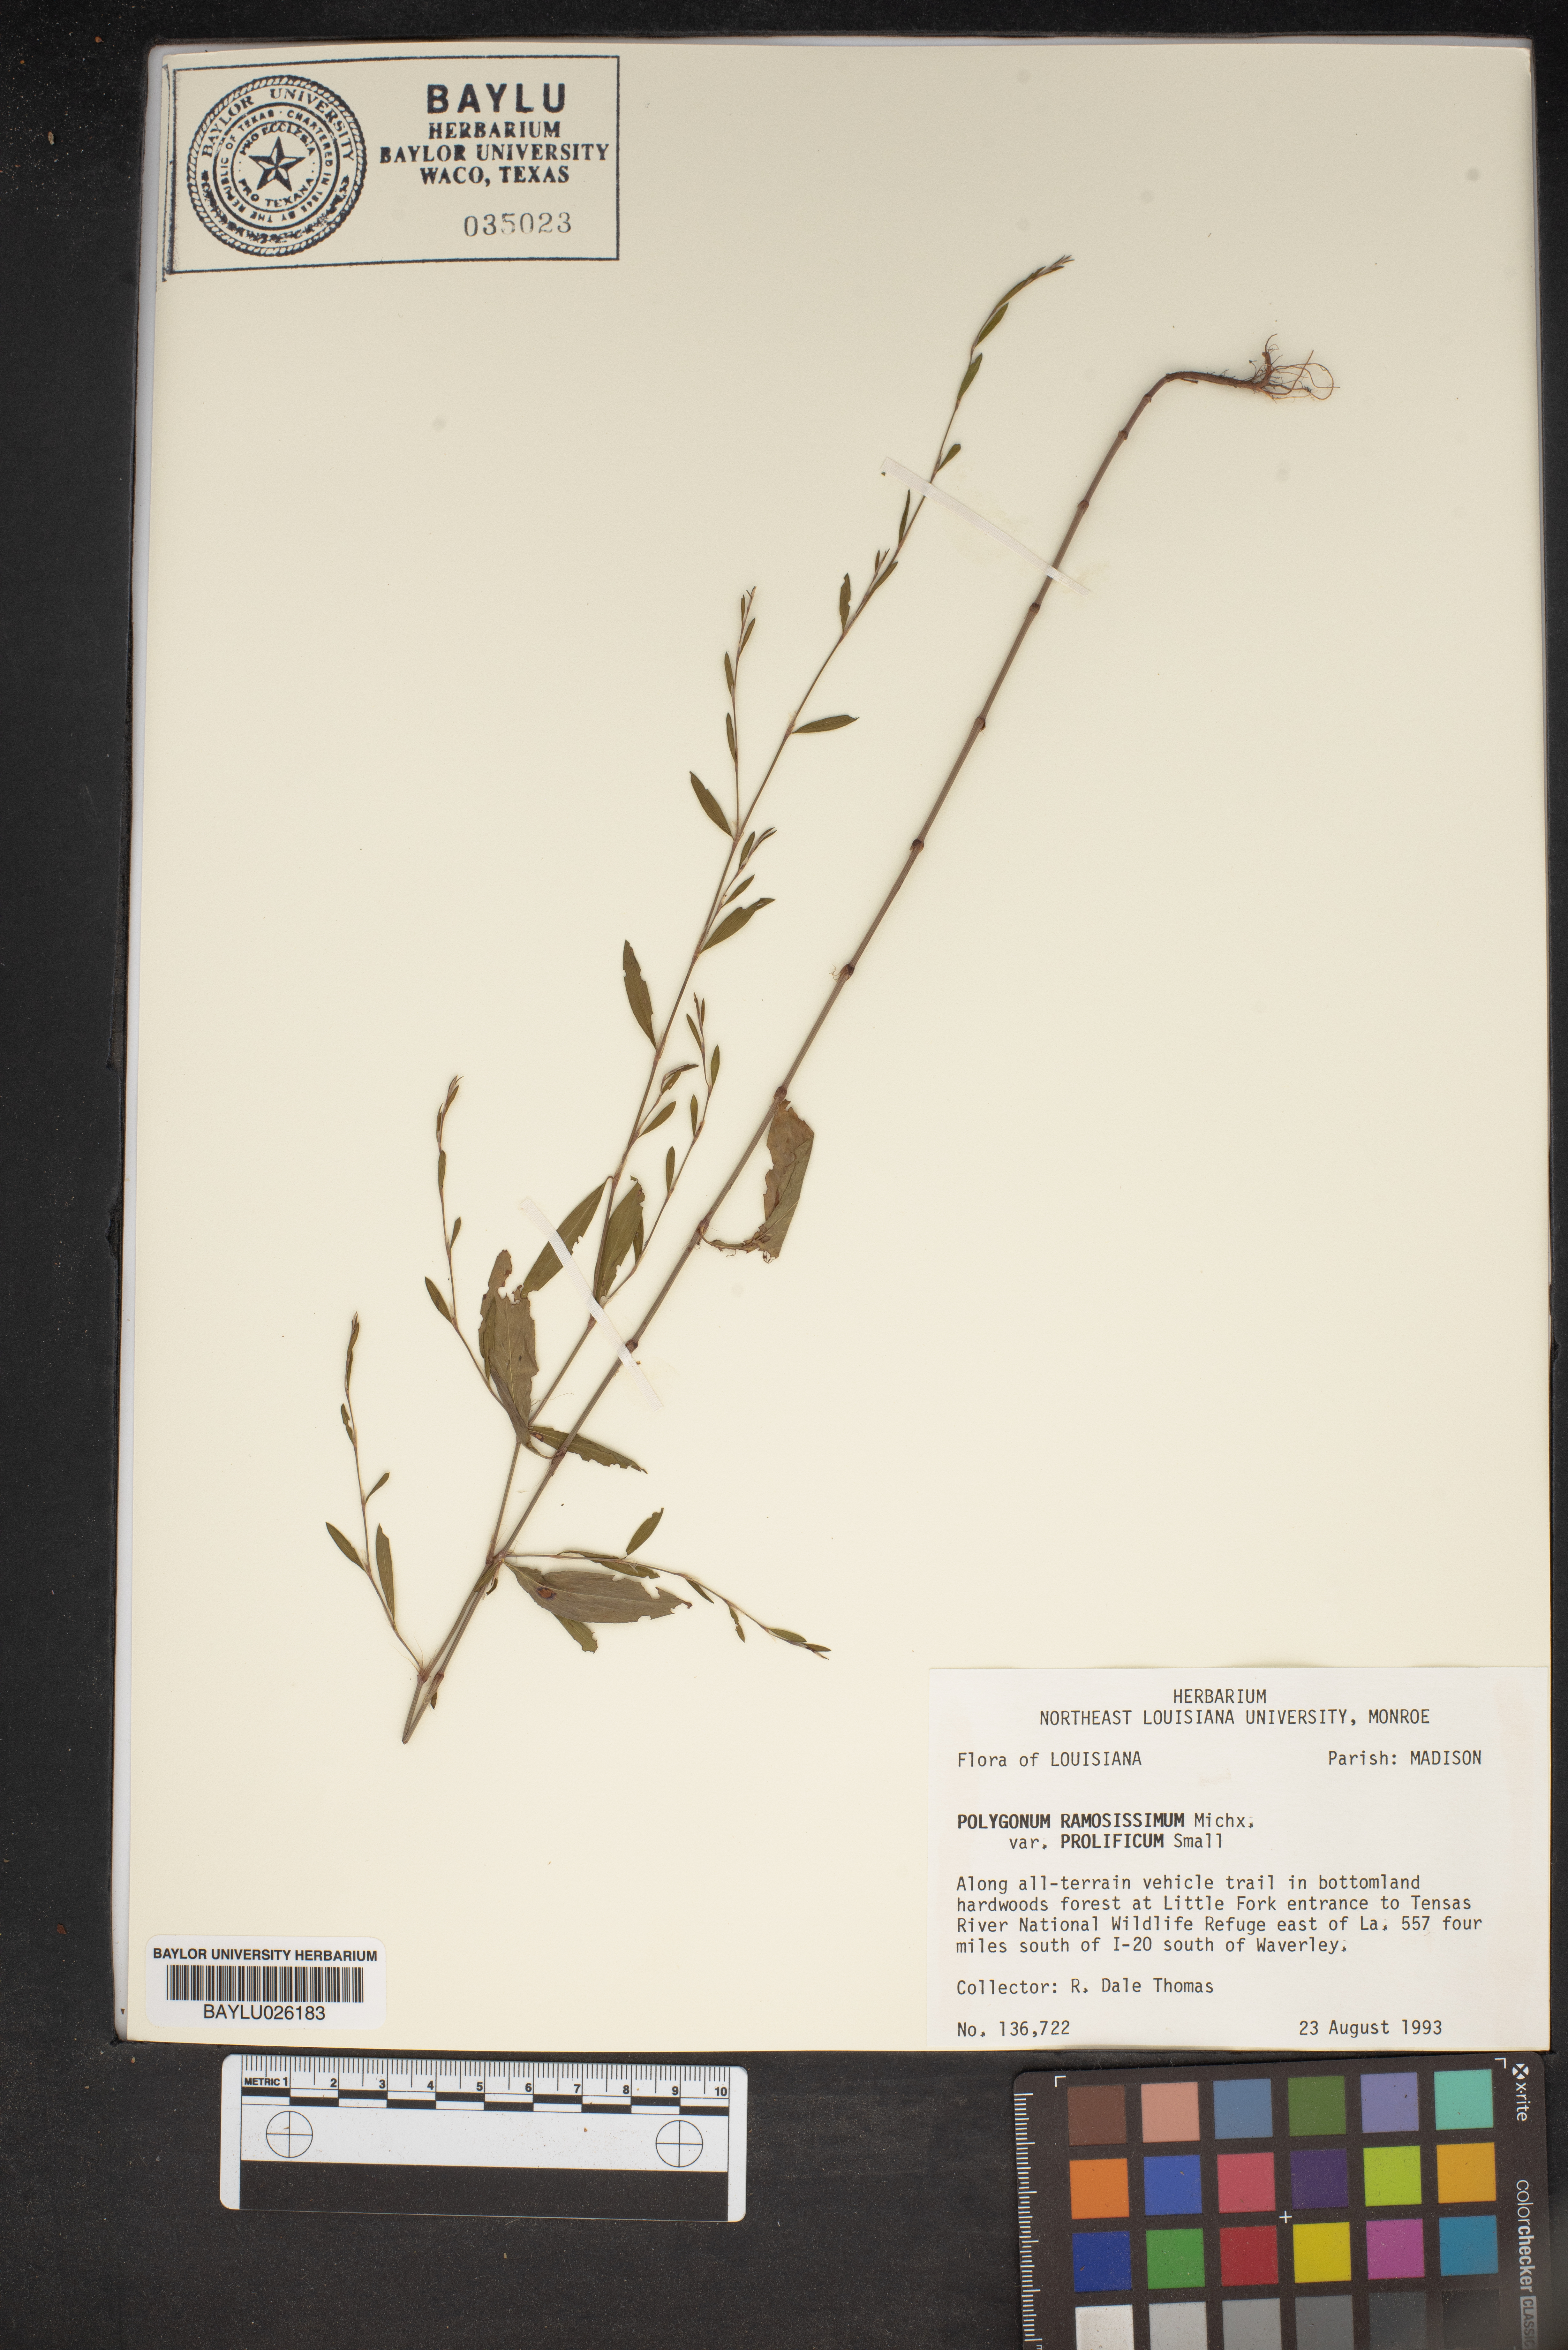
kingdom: Plantae
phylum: Tracheophyta
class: Magnoliopsida
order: Caryophyllales
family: Polygonaceae
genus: Polygonum
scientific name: Polygonum ramosissimum
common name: Bushy knotweed
